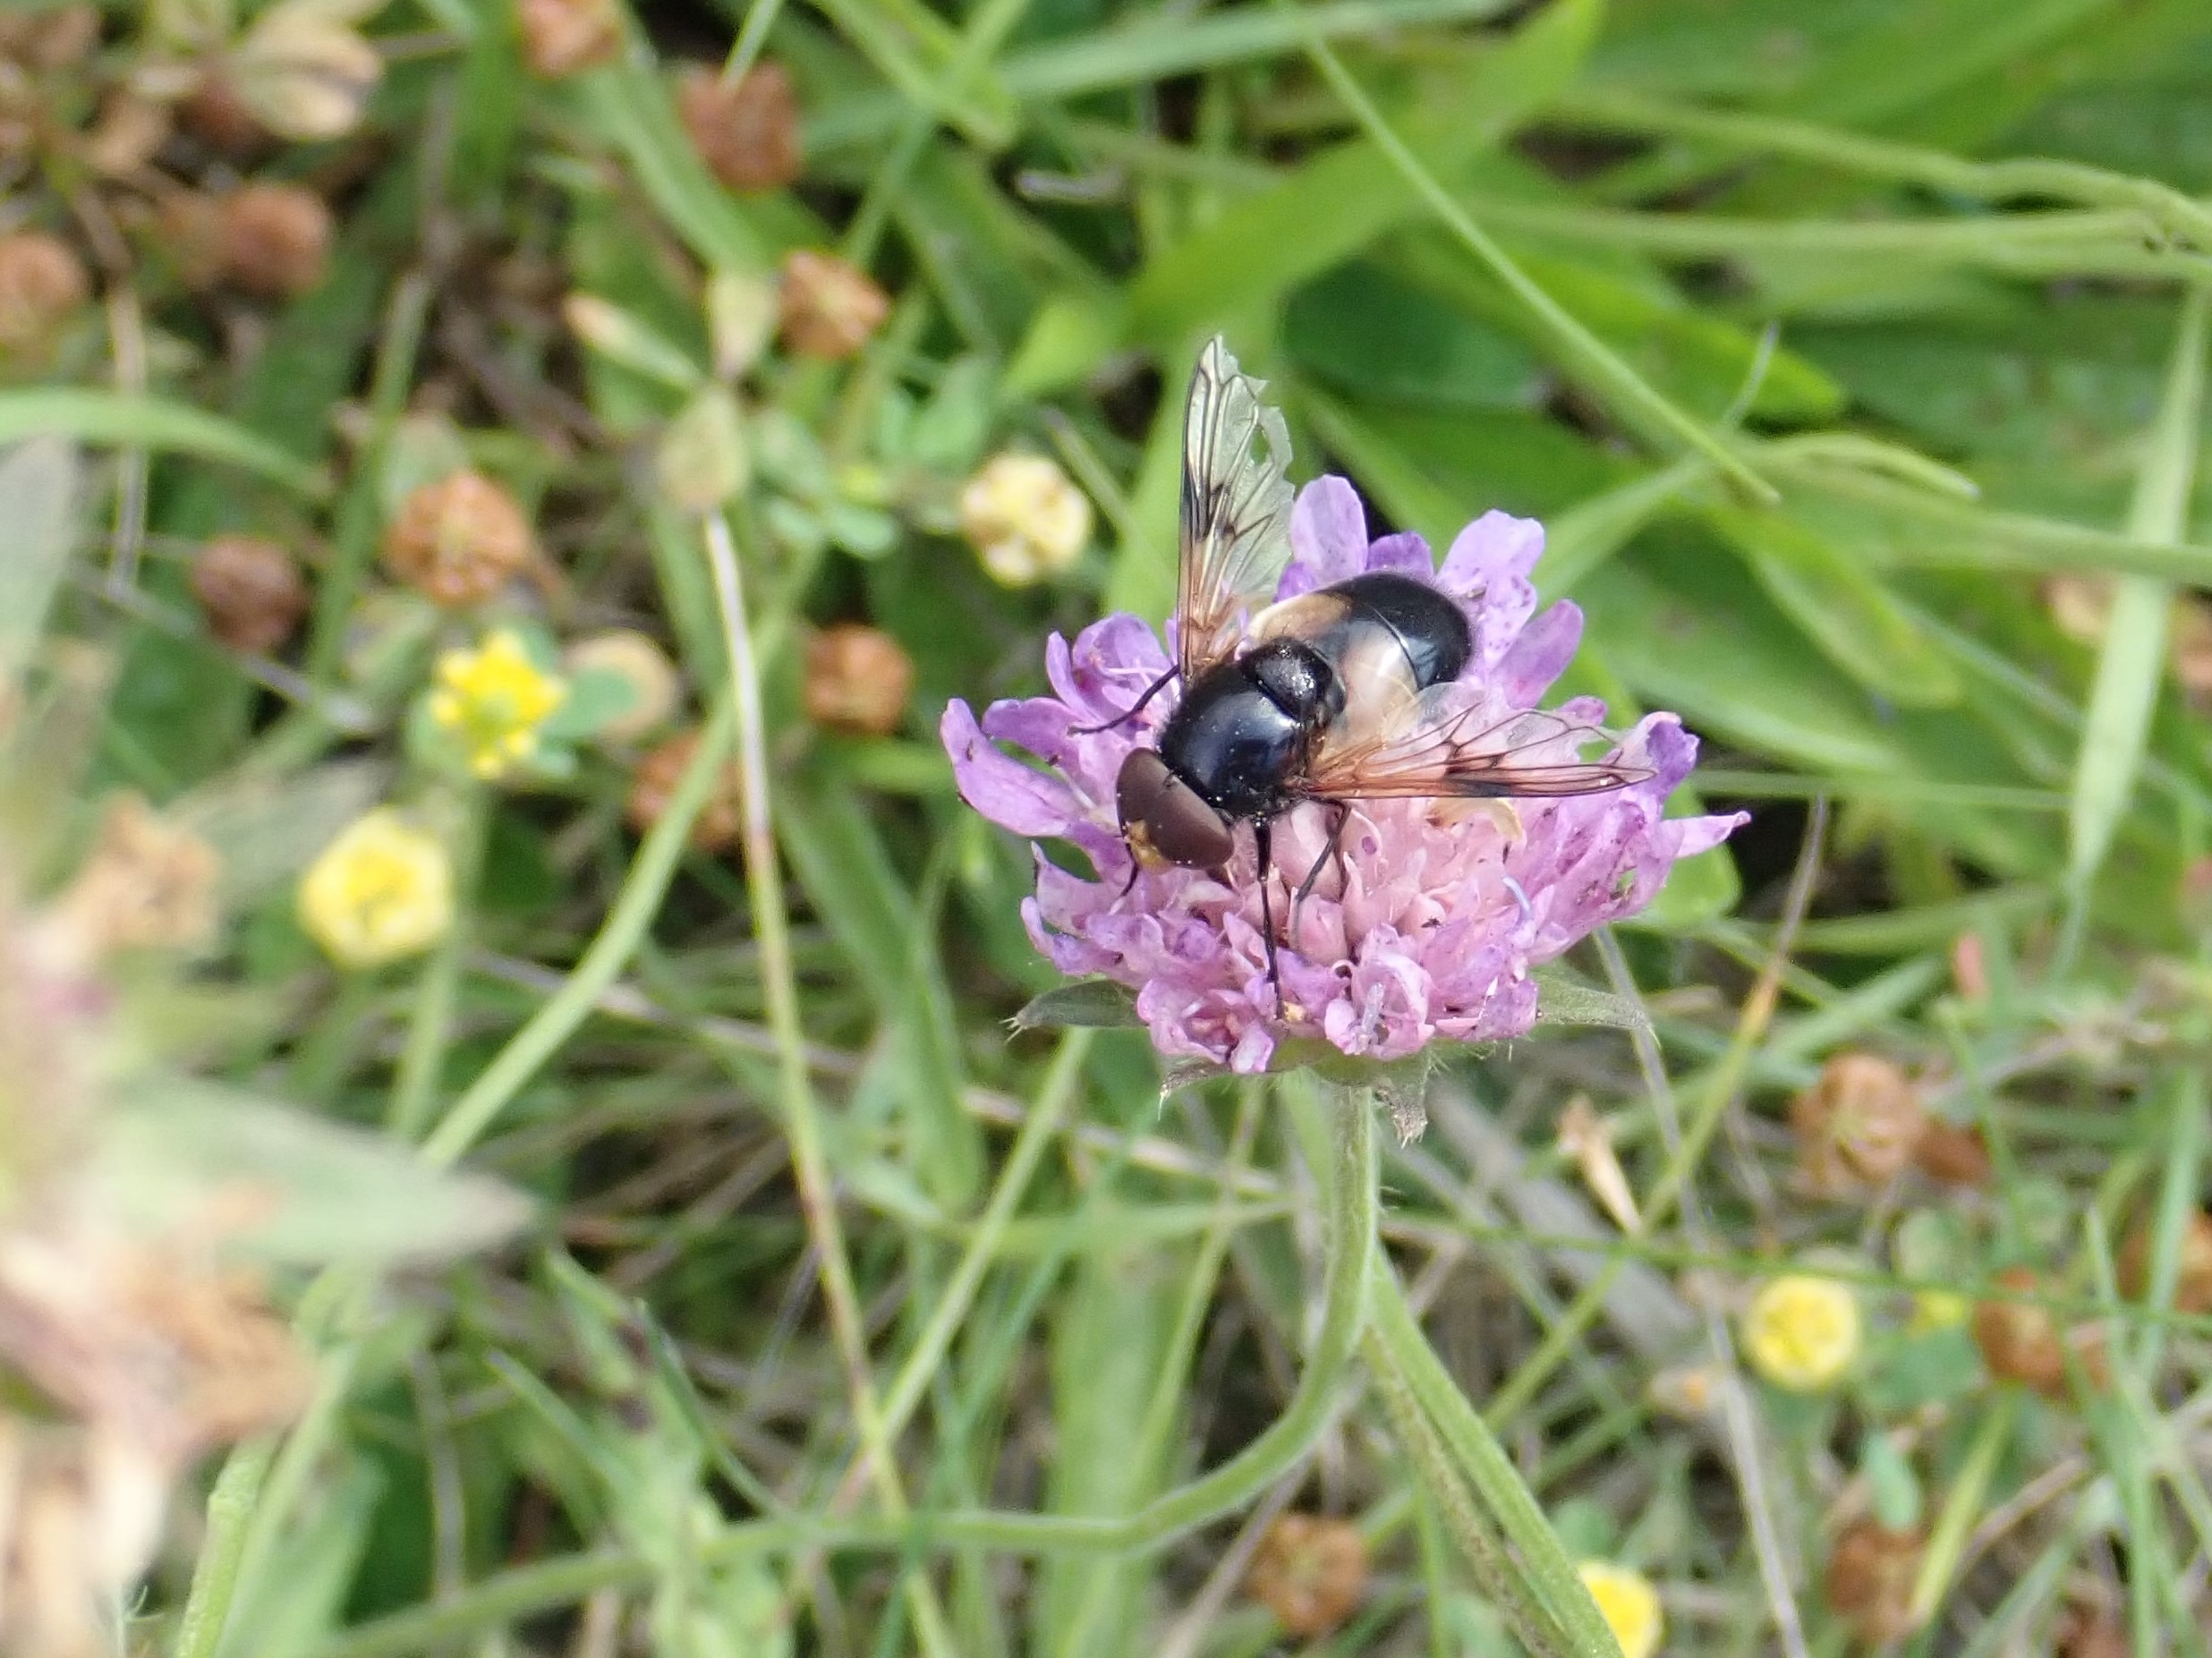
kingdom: Animalia
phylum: Arthropoda
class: Insecta
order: Diptera
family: Syrphidae
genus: Volucella
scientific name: Volucella pellucens
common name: Hvidbåndet humlesvirreflue
